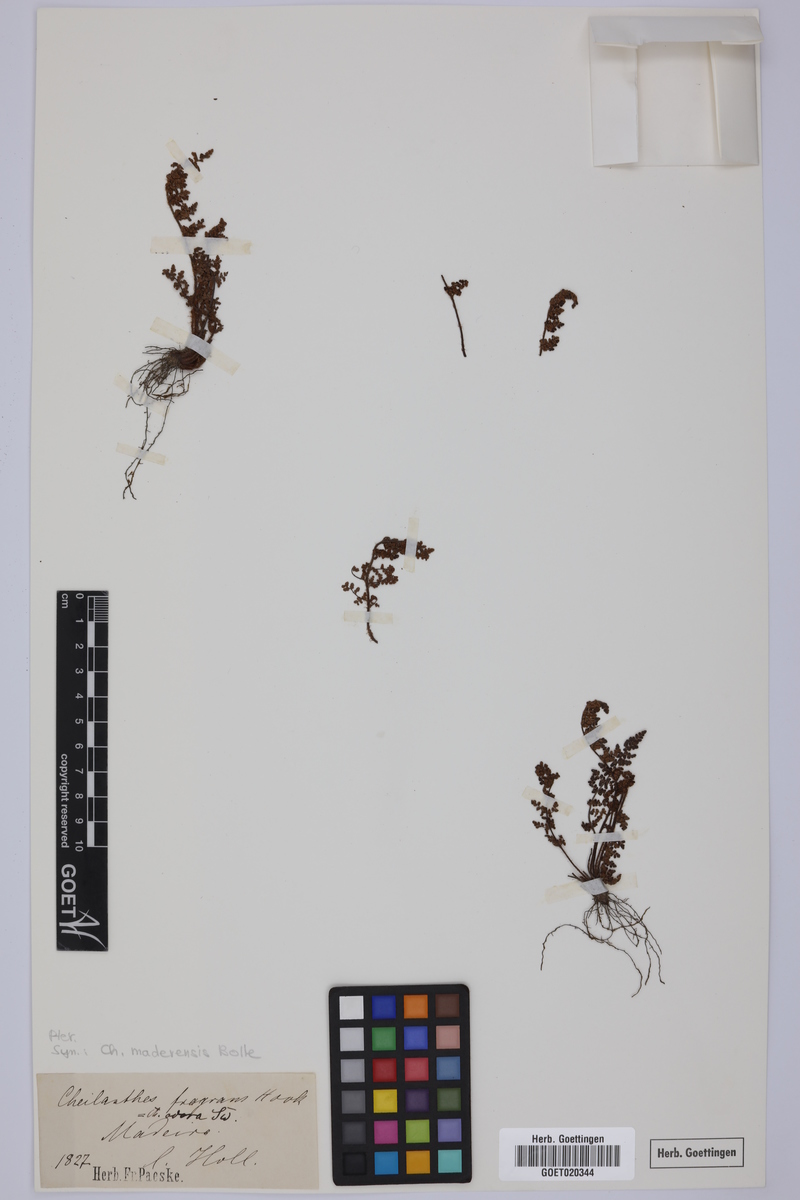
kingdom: Plantae
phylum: Tracheophyta
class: Polypodiopsida
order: Polypodiales
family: Pteridaceae
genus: Oeosporangium
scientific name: Oeosporangium pteridioides
